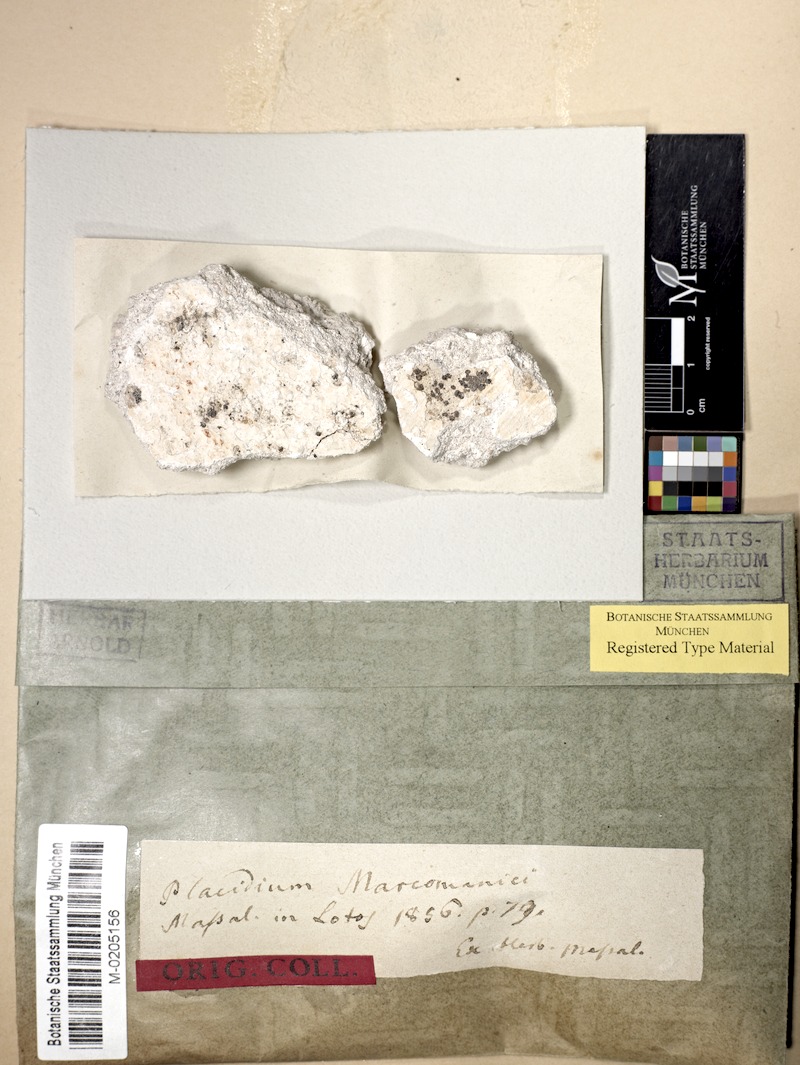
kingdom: Fungi
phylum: Ascomycota
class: Eurotiomycetes
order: Verrucariales
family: Verrucariaceae
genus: Dermatocarpon
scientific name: Dermatocarpon
